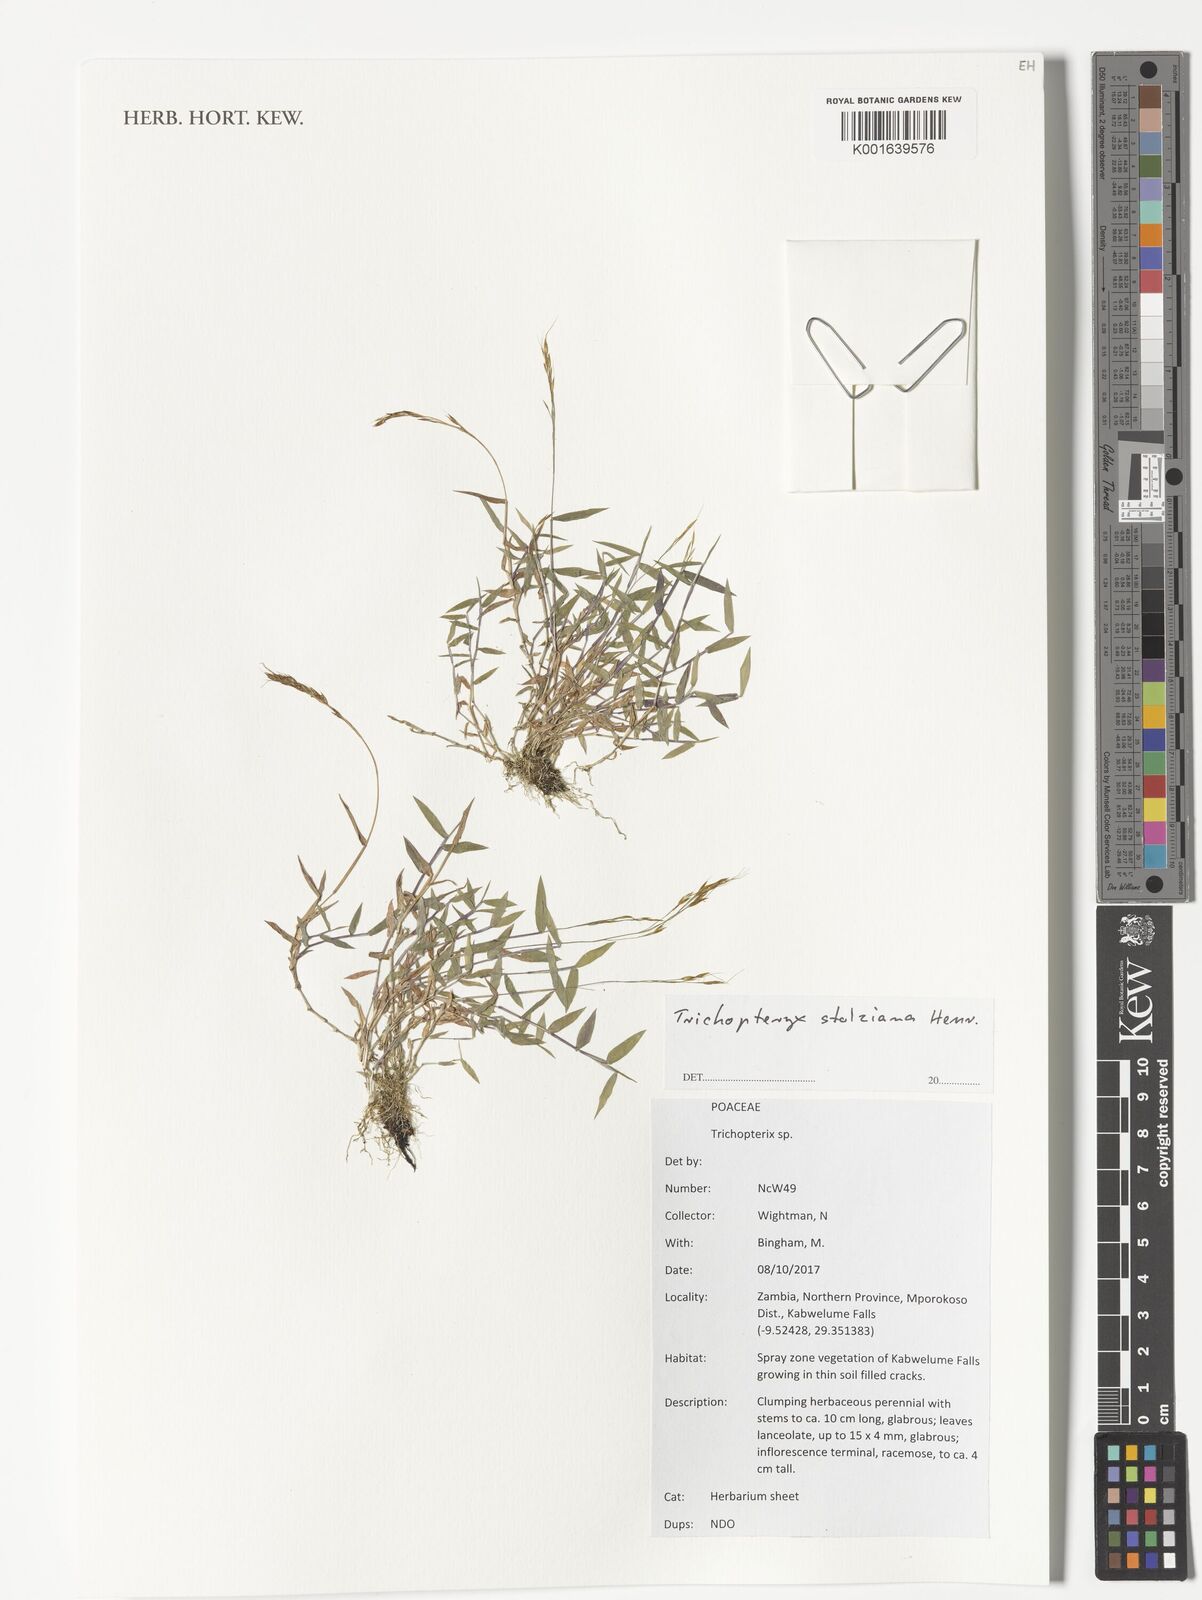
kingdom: Plantae
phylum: Tracheophyta
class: Liliopsida
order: Poales
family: Poaceae
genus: Trichopteryx
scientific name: Trichopteryx stolziana
